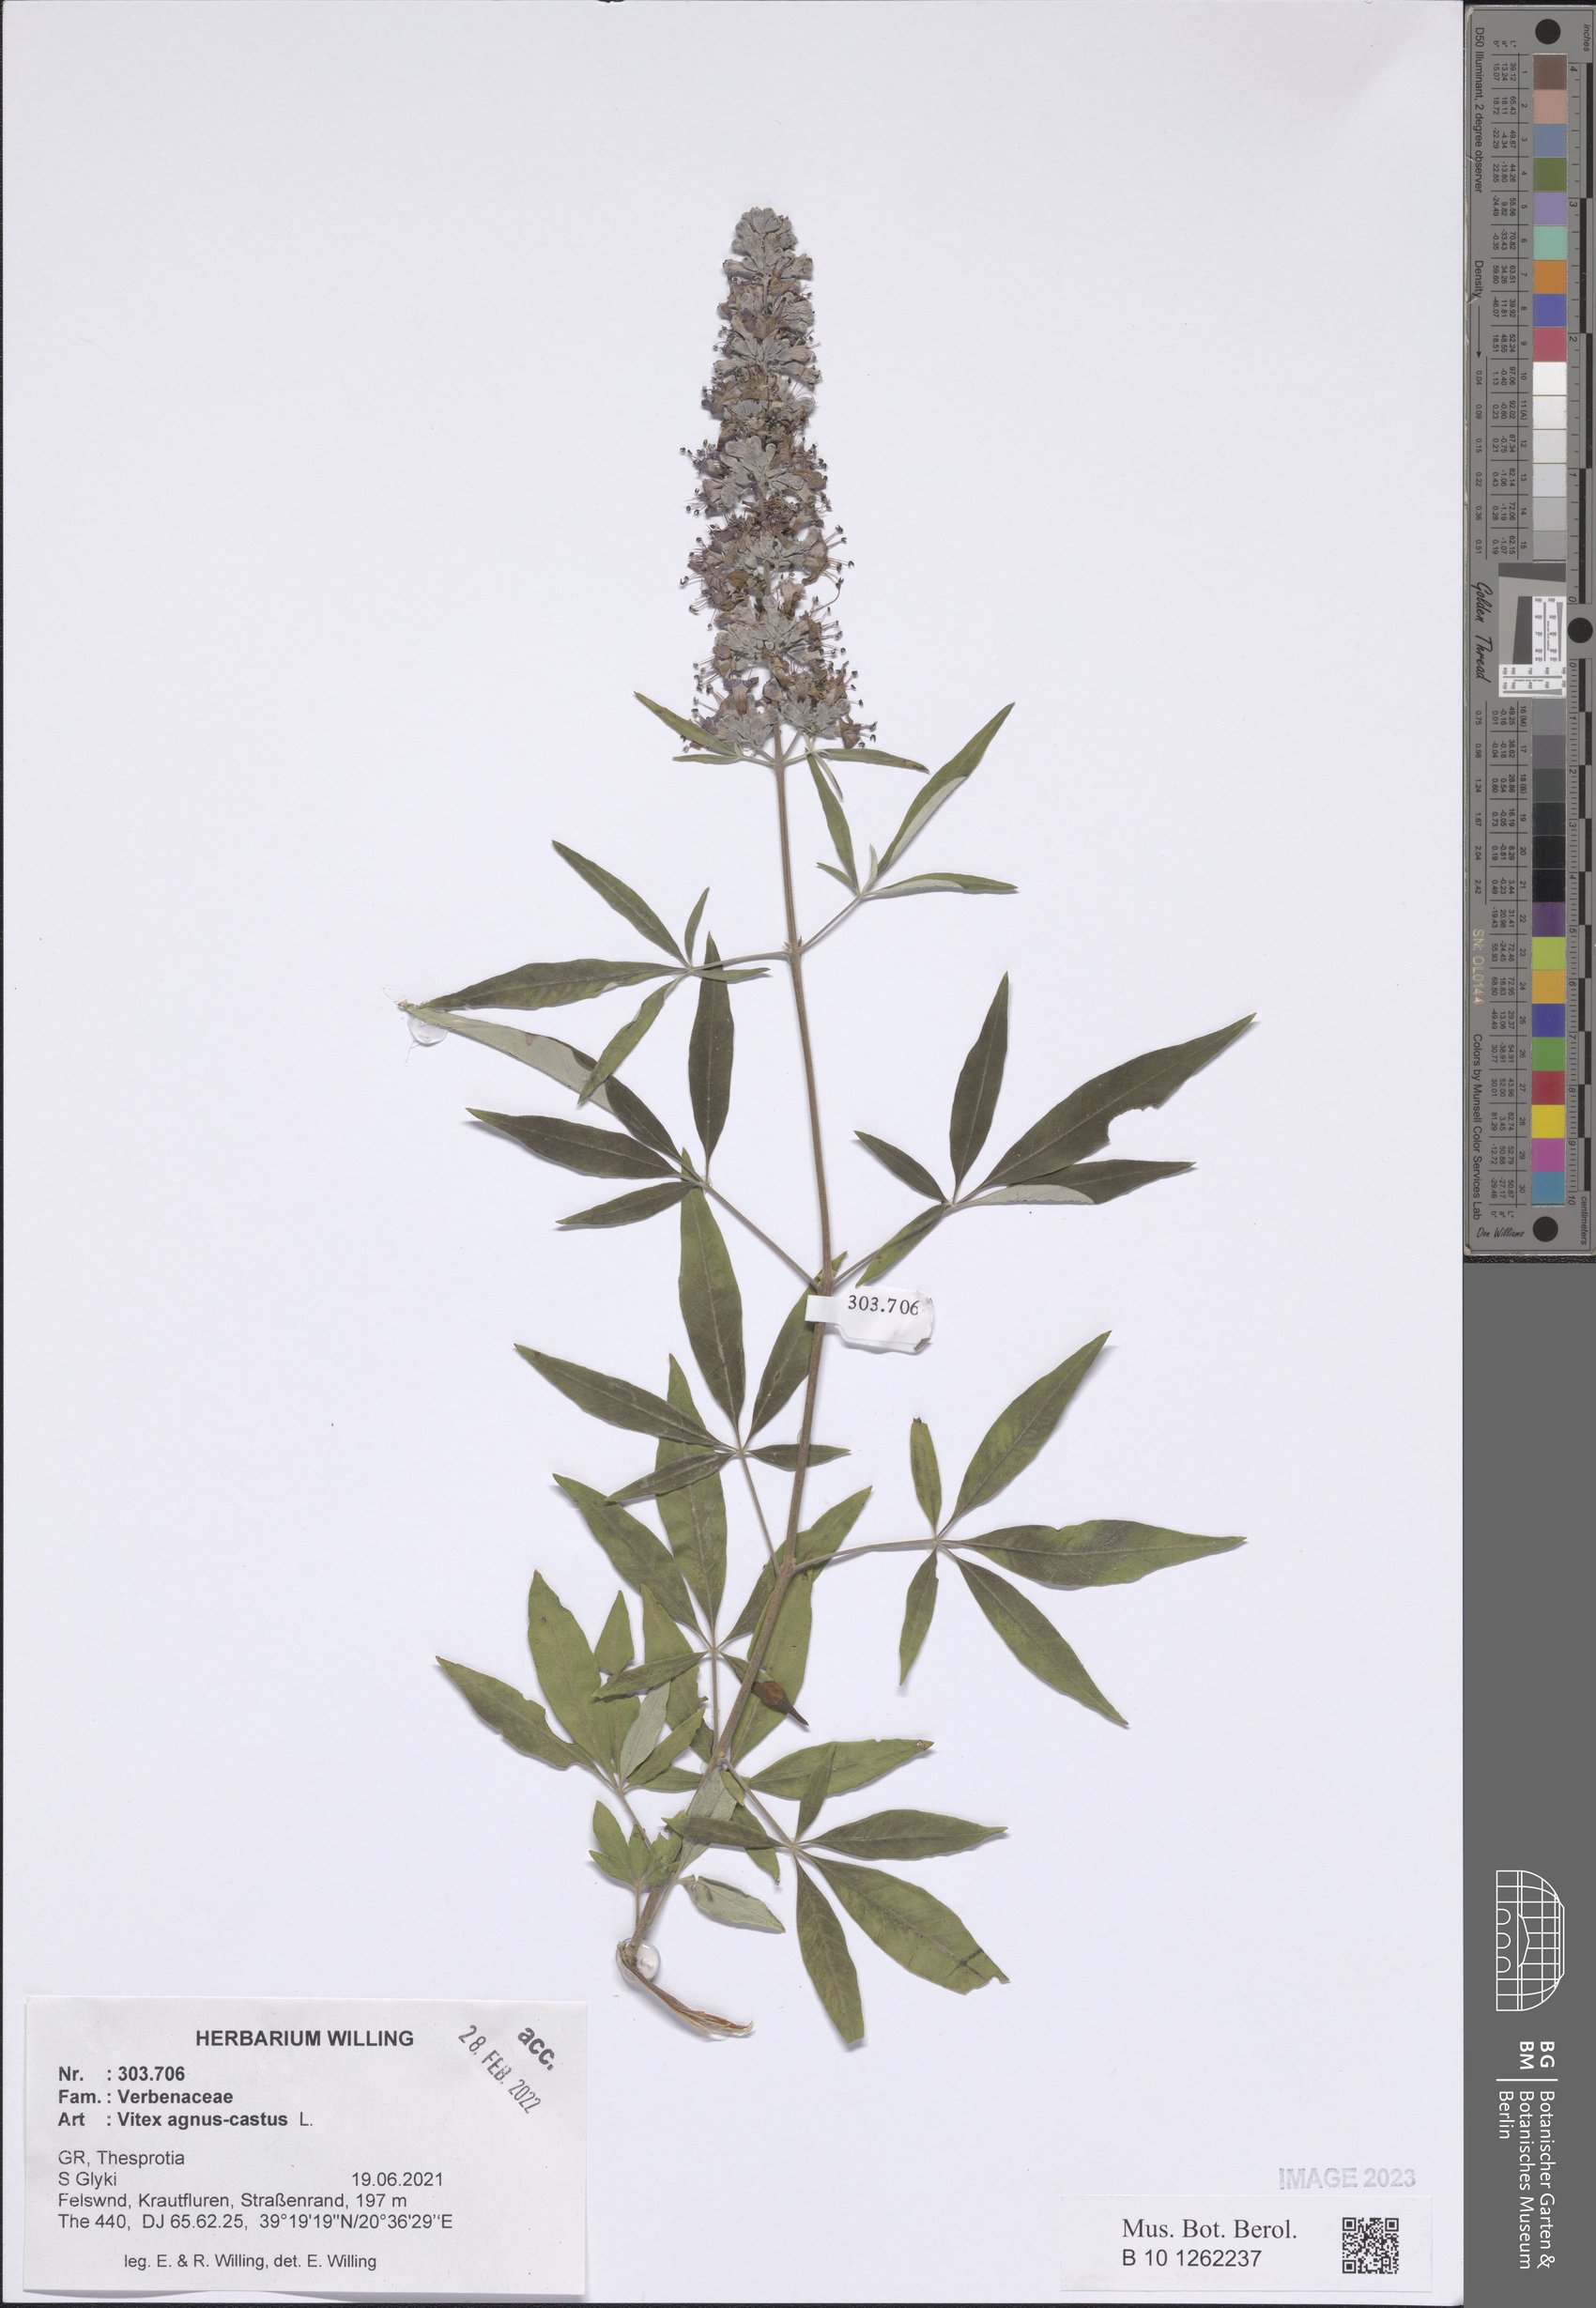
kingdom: Plantae
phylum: Tracheophyta
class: Magnoliopsida
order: Lamiales
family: Lamiaceae
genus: Vitex
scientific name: Vitex agnus-castus
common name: Chasteberry
